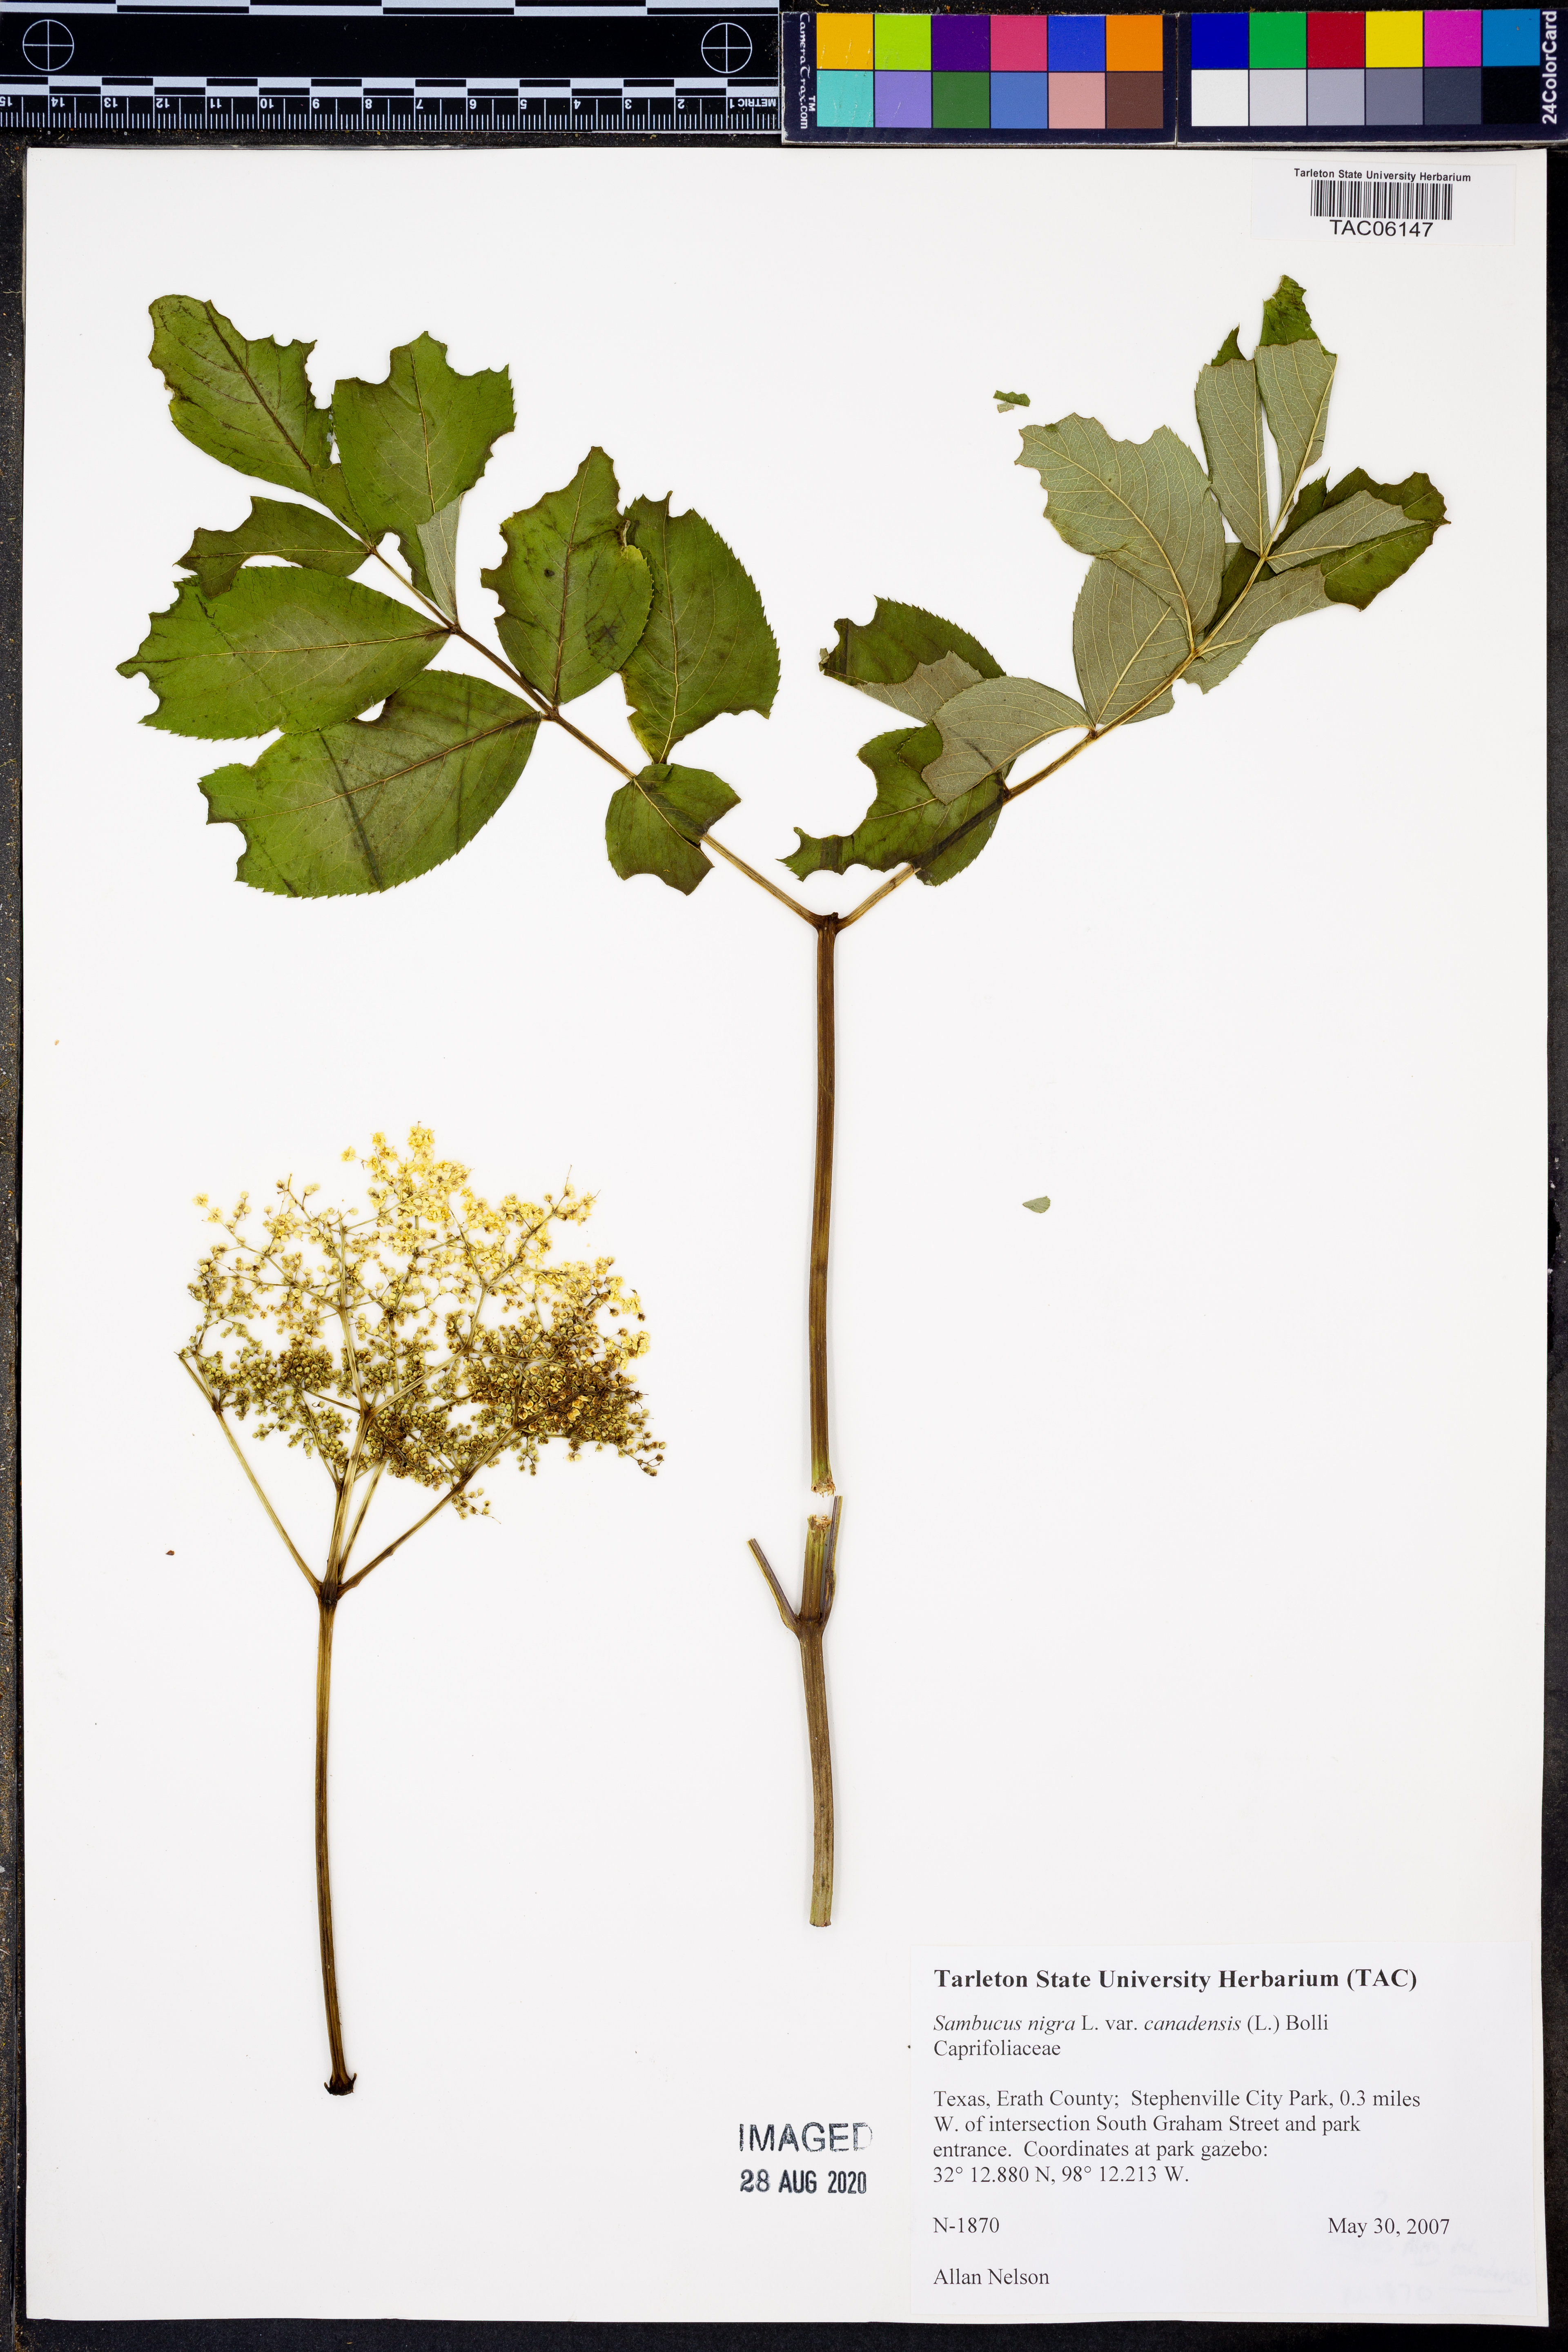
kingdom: Plantae
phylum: Tracheophyta
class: Magnoliopsida
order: Dipsacales
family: Viburnaceae
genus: Sambucus
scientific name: Sambucus canadensis
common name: American elder
